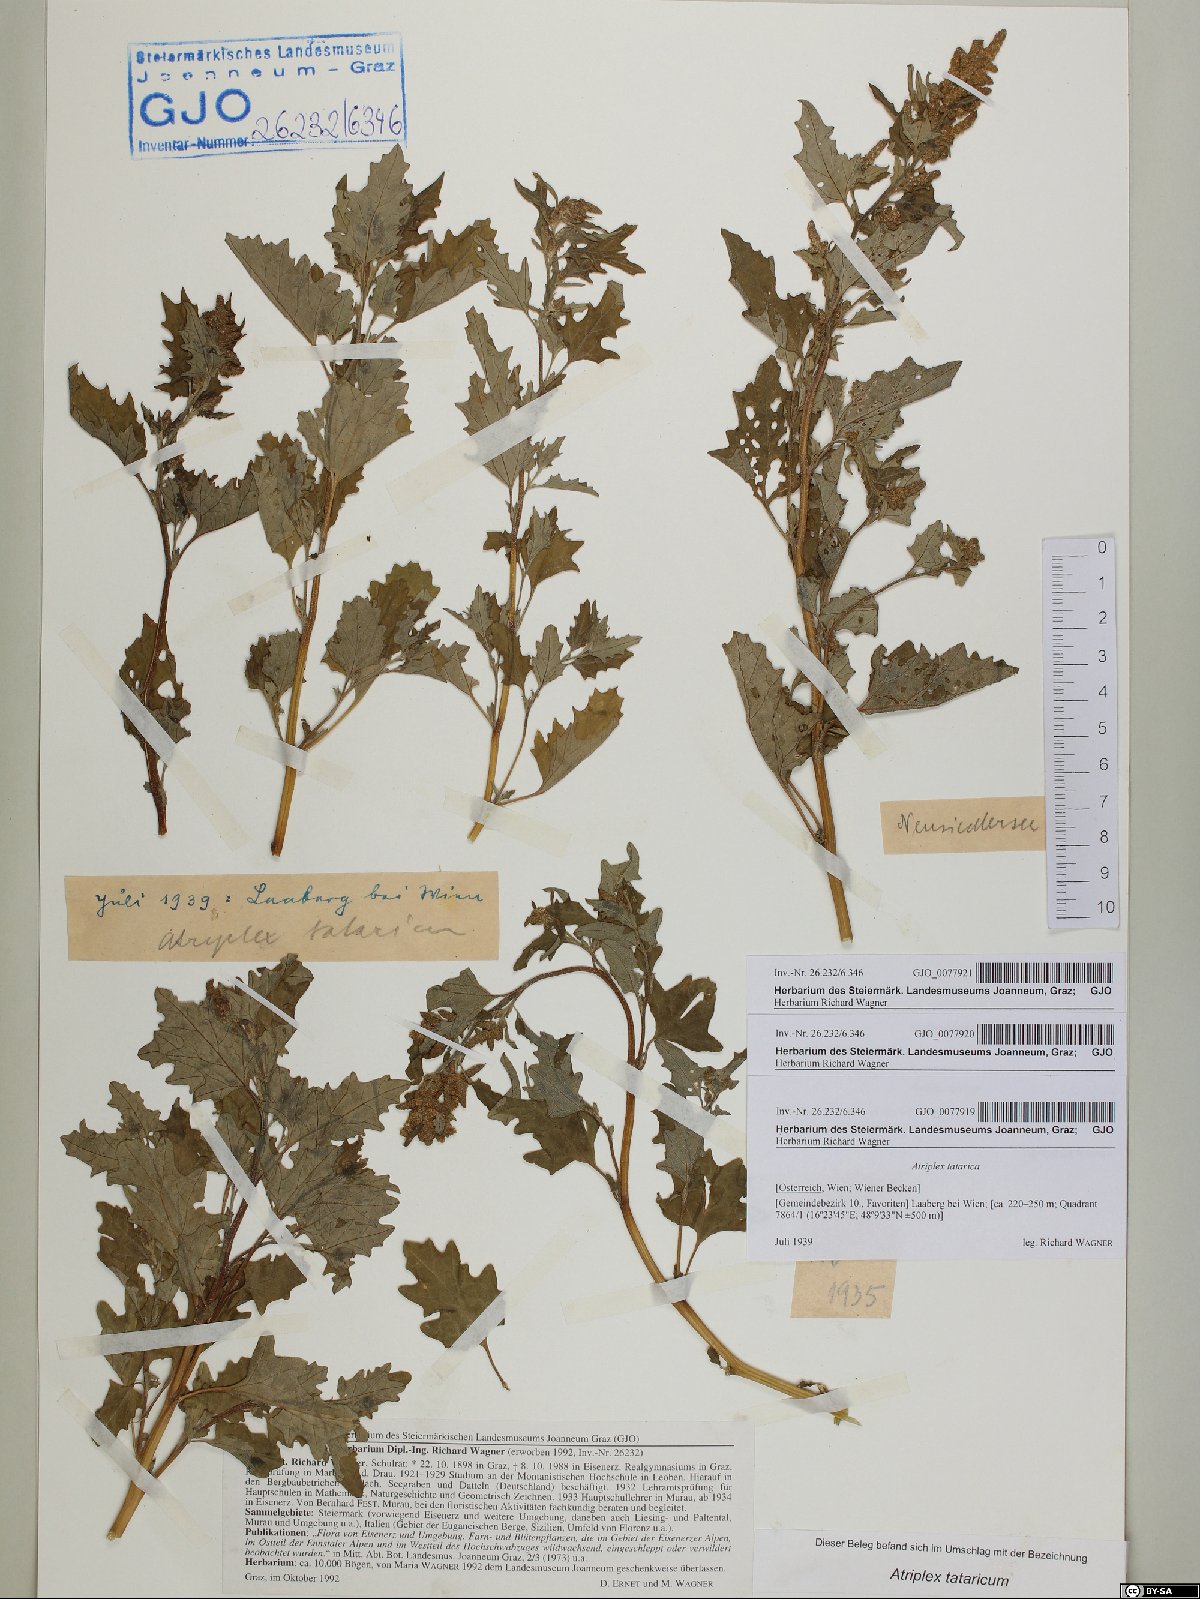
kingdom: Plantae
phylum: Tracheophyta
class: Magnoliopsida
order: Caryophyllales
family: Amaranthaceae
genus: Atriplex
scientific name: Atriplex tatarica
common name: Tatarian orache
